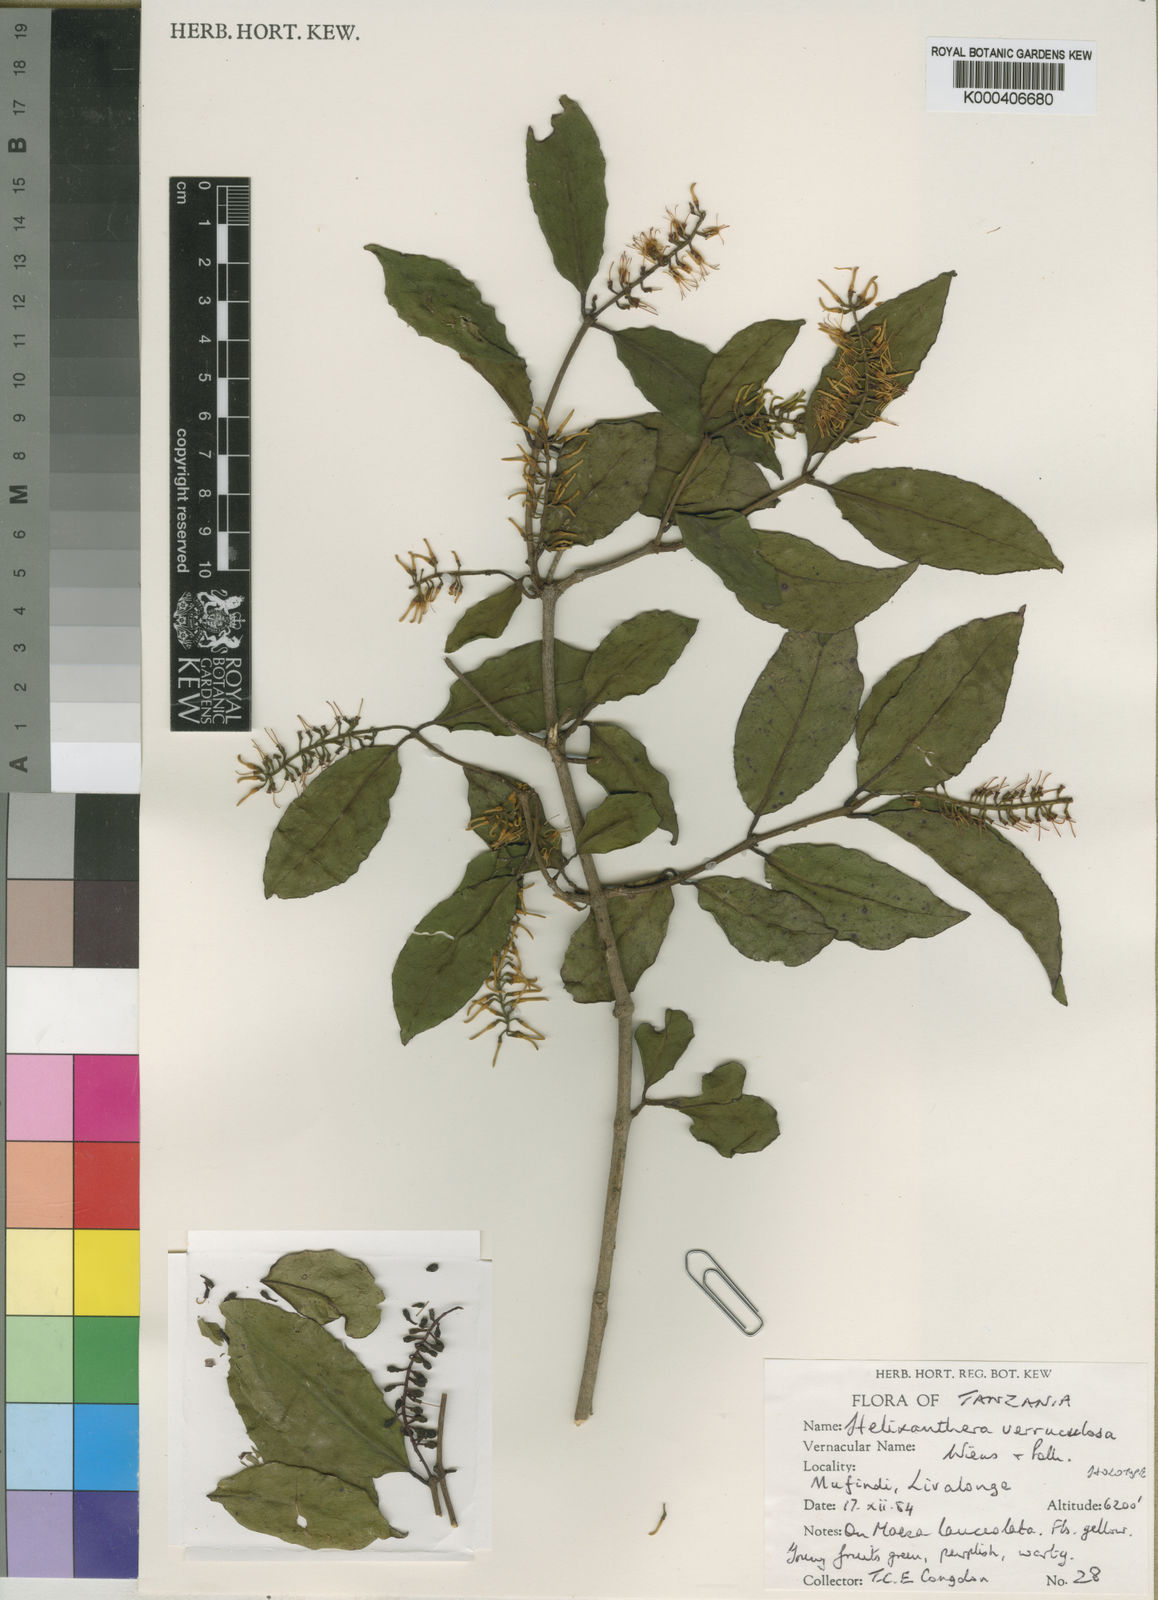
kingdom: Plantae
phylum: Tracheophyta
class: Magnoliopsida
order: Santalales
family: Loranthaceae
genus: Helixanthera
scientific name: Helixanthera verruculosa
